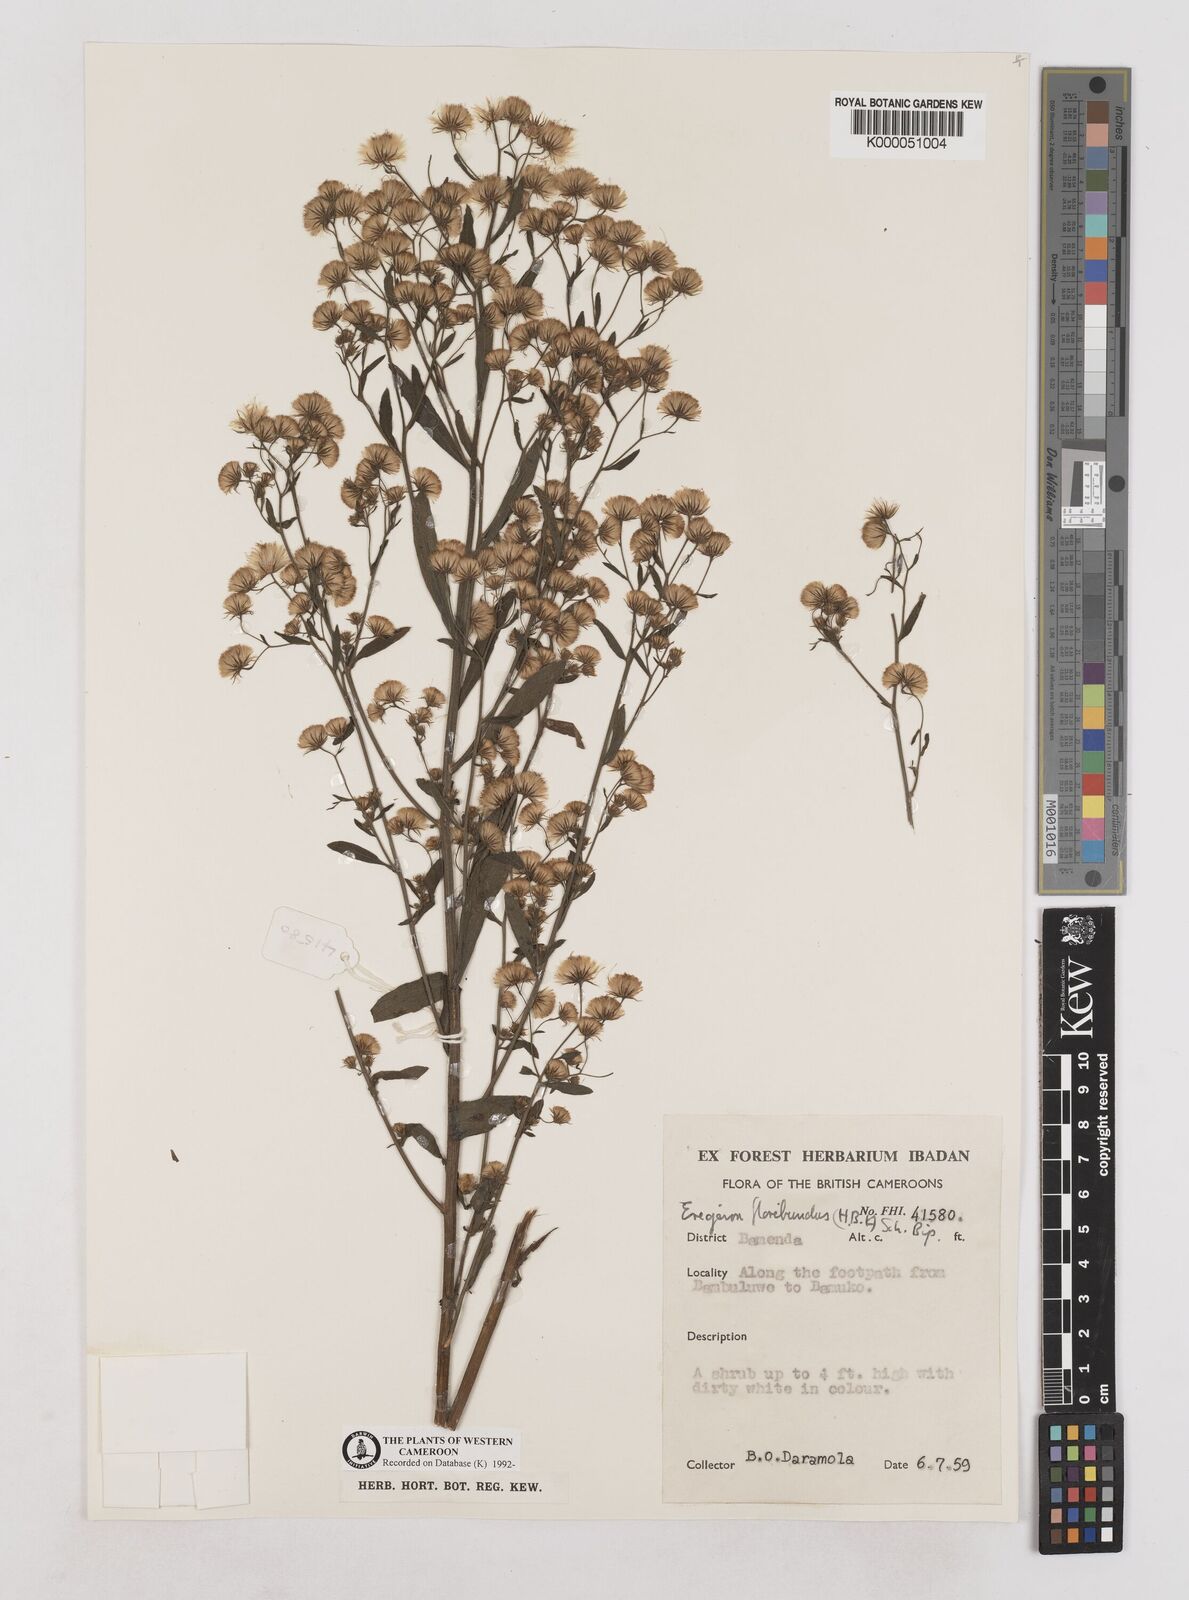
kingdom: Plantae
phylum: Tracheophyta
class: Magnoliopsida
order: Asterales
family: Asteraceae
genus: Erigeron
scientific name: Erigeron bonariensis
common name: Argentine fleabane
